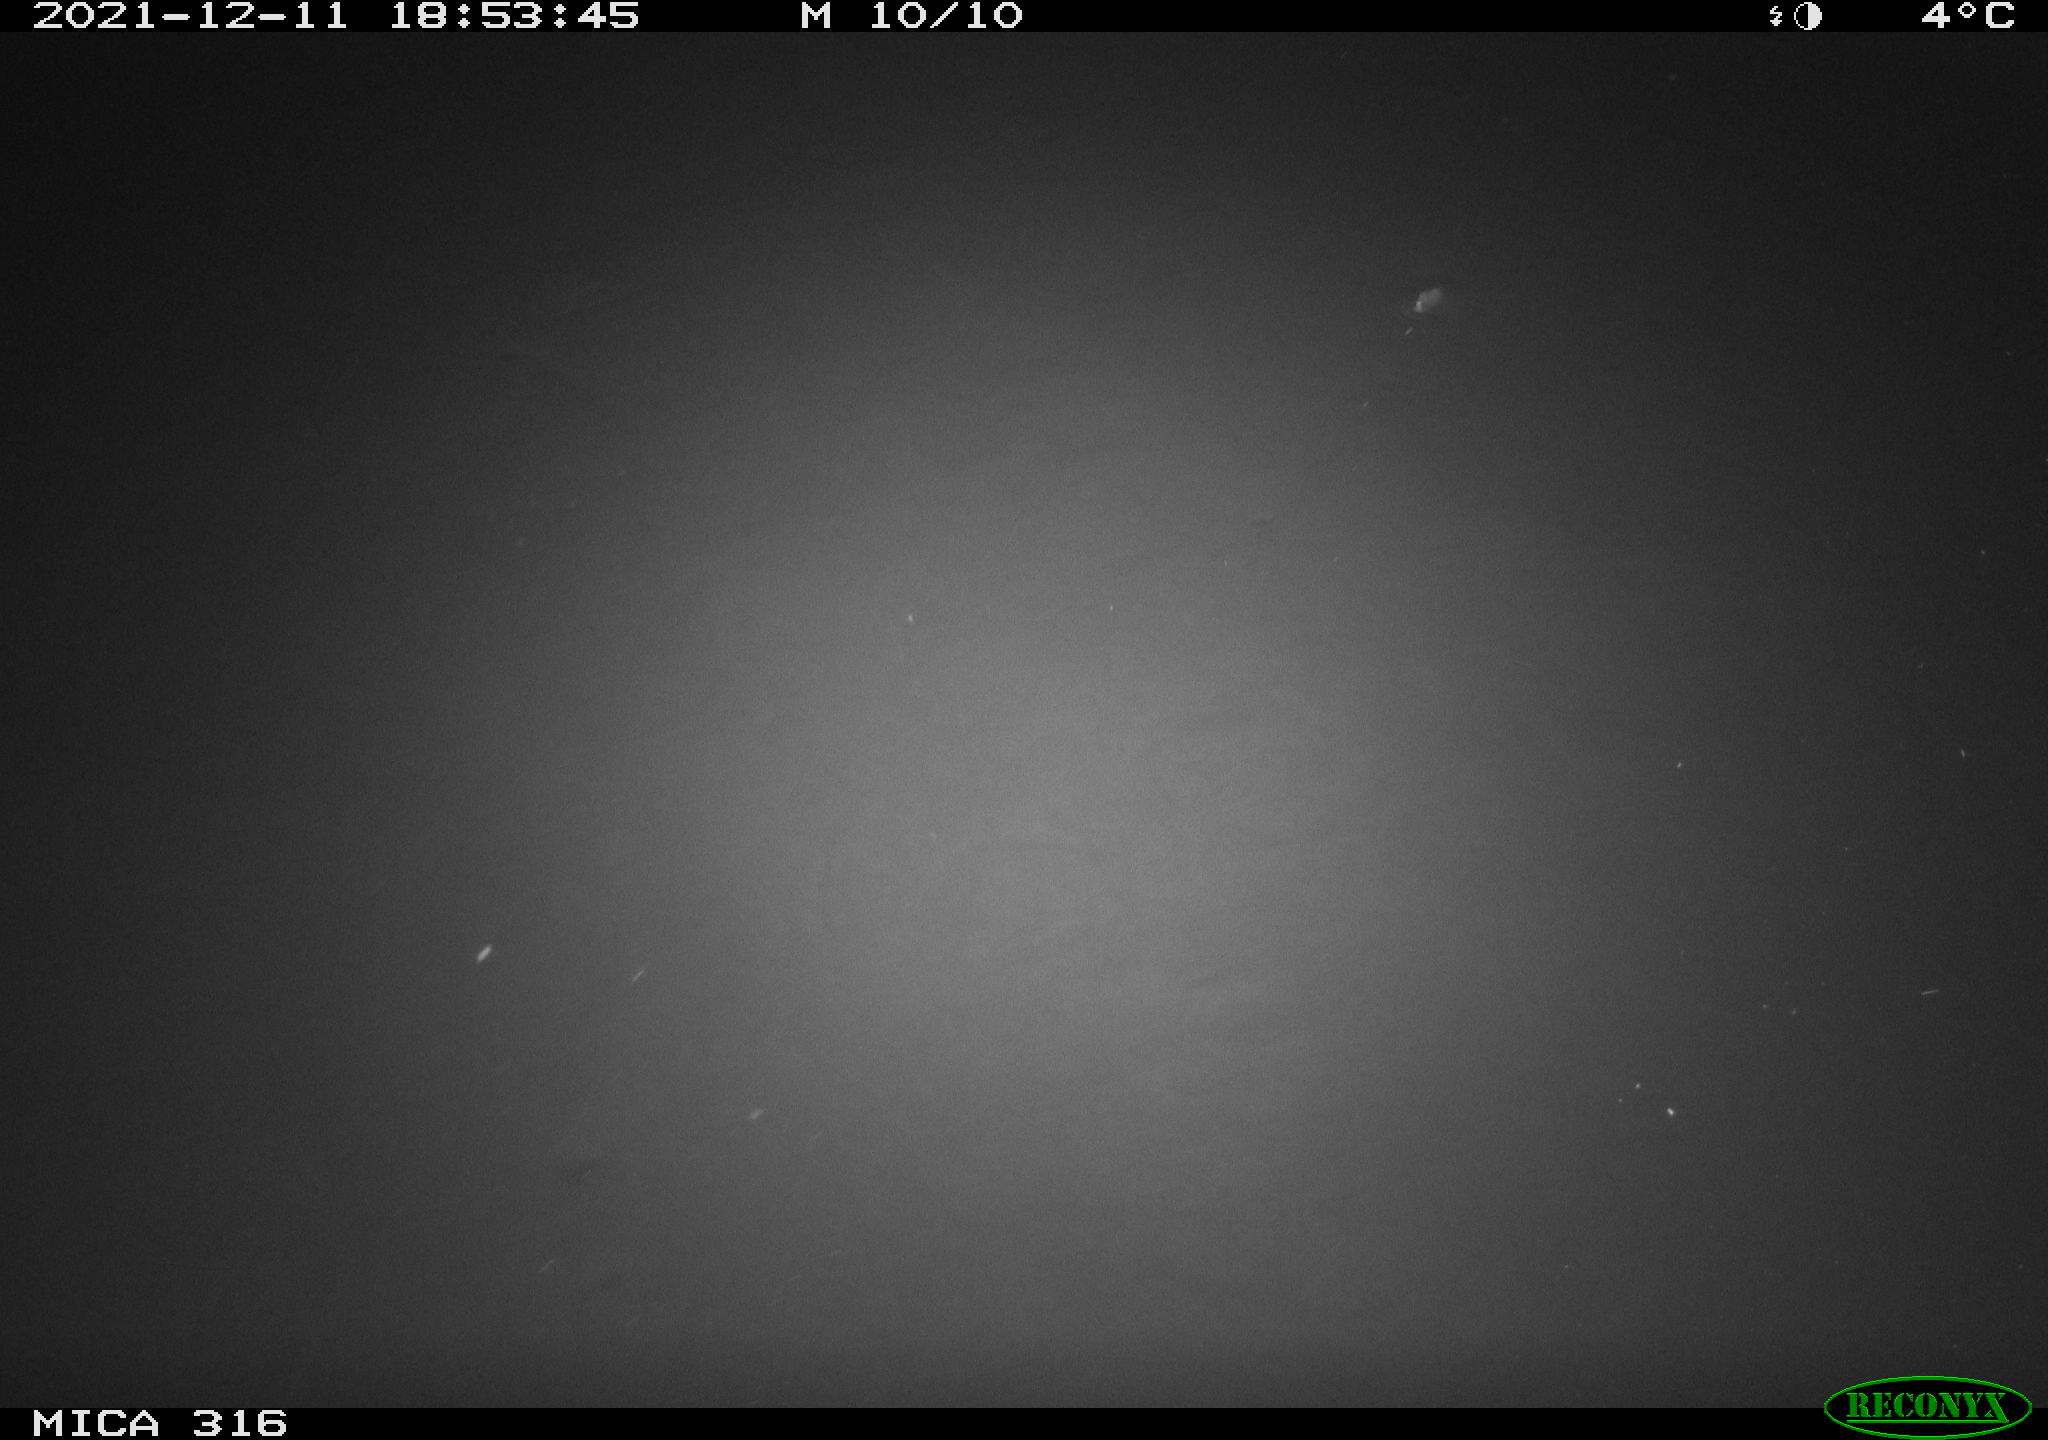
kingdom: Animalia
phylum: Chordata
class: Mammalia
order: Rodentia
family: Muridae
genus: Rattus
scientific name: Rattus norvegicus
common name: Brown rat
